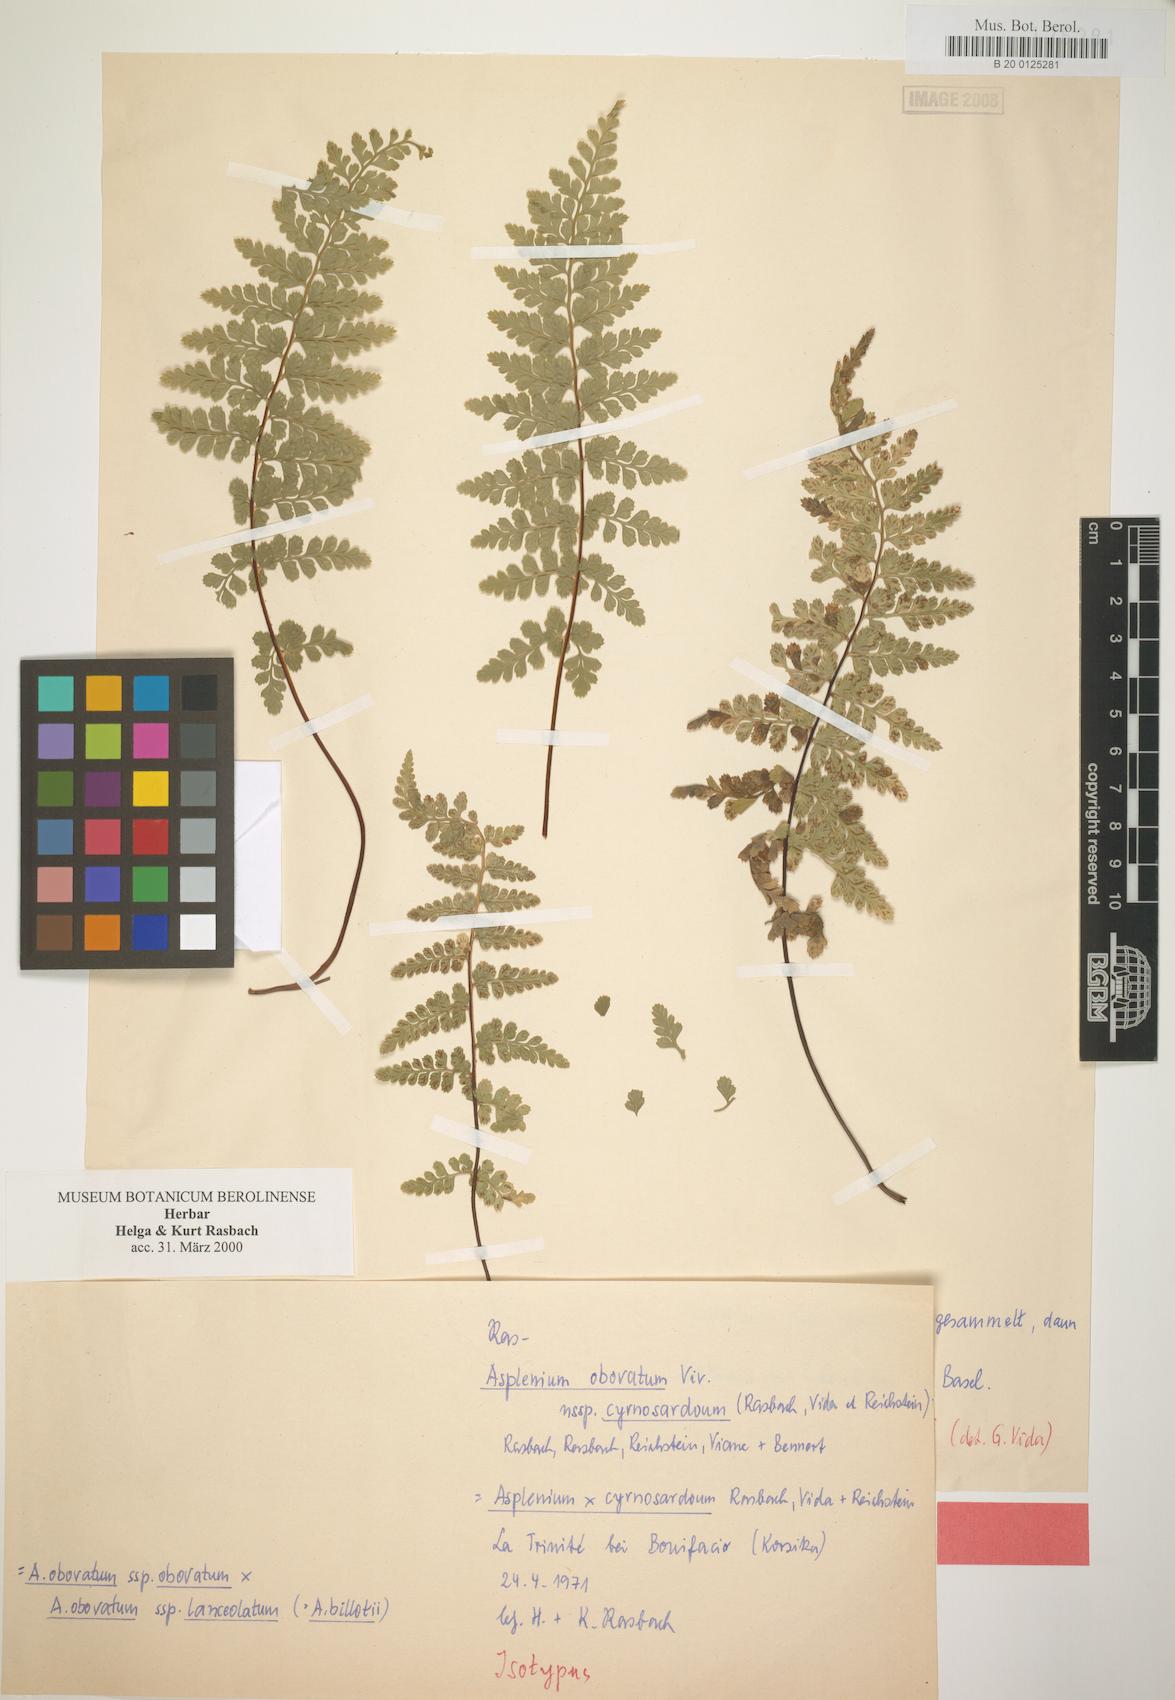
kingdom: Plantae
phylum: Tracheophyta
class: Polypodiopsida
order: Polypodiales
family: Aspleniaceae
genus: Asplenium
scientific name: Asplenium obovatum
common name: Lanceolate spleenwort
